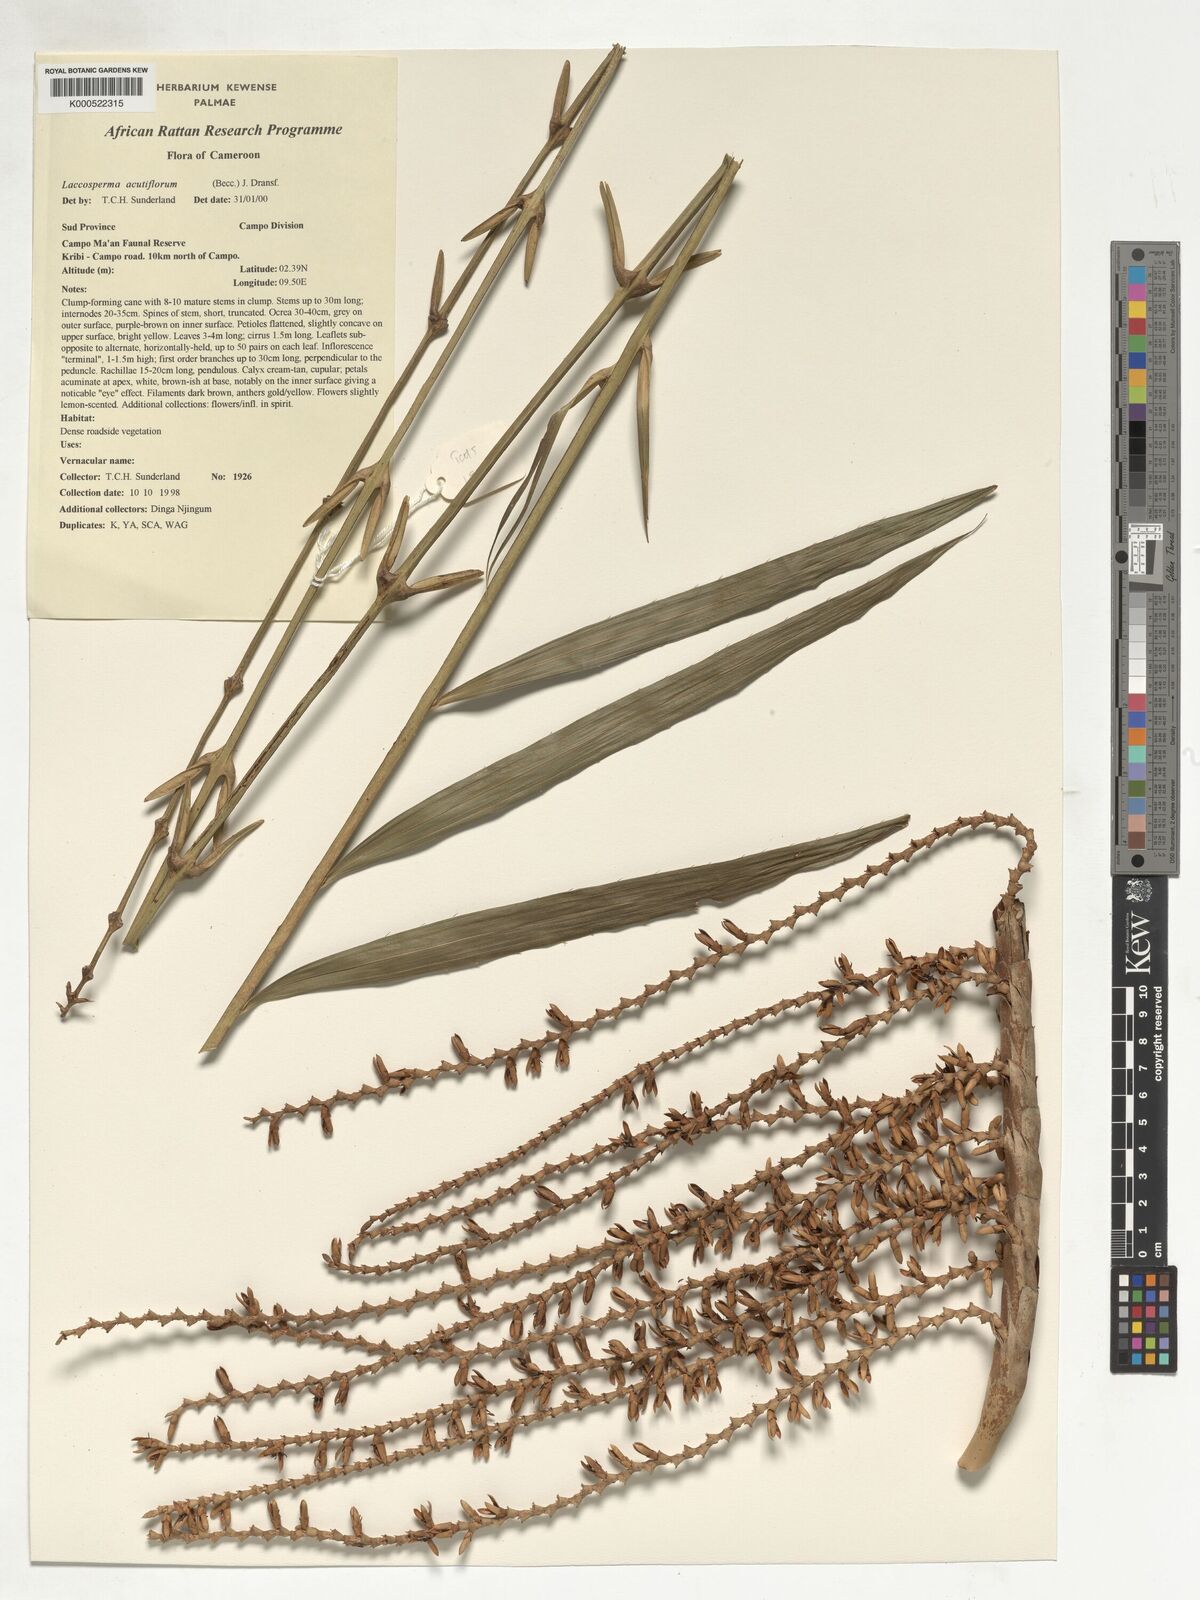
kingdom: Plantae
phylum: Tracheophyta
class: Liliopsida
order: Arecales
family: Arecaceae
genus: Laccosperma
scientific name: Laccosperma acutiflorum
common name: Rattan
